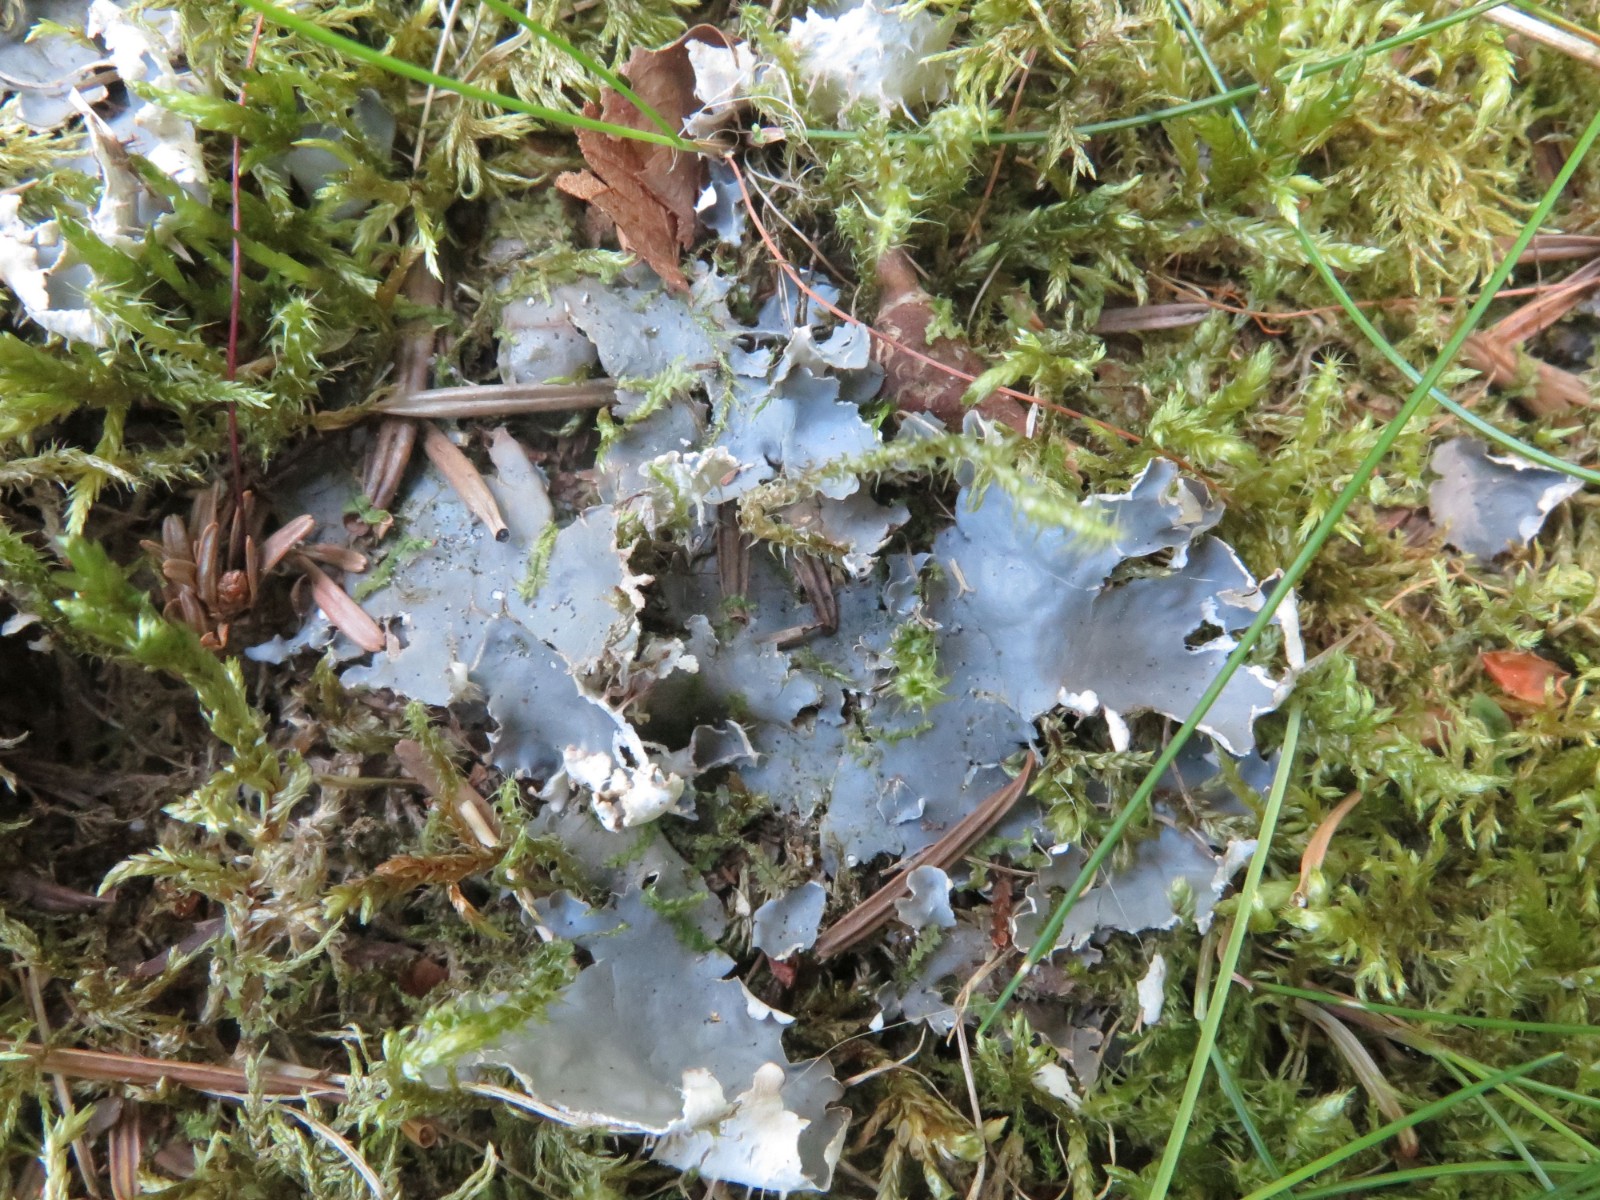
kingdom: Fungi
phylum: Ascomycota
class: Lecanoromycetes
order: Peltigerales
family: Peltigeraceae
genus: Peltigera
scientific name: Peltigera hymenina
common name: hinde-skjoldlav
